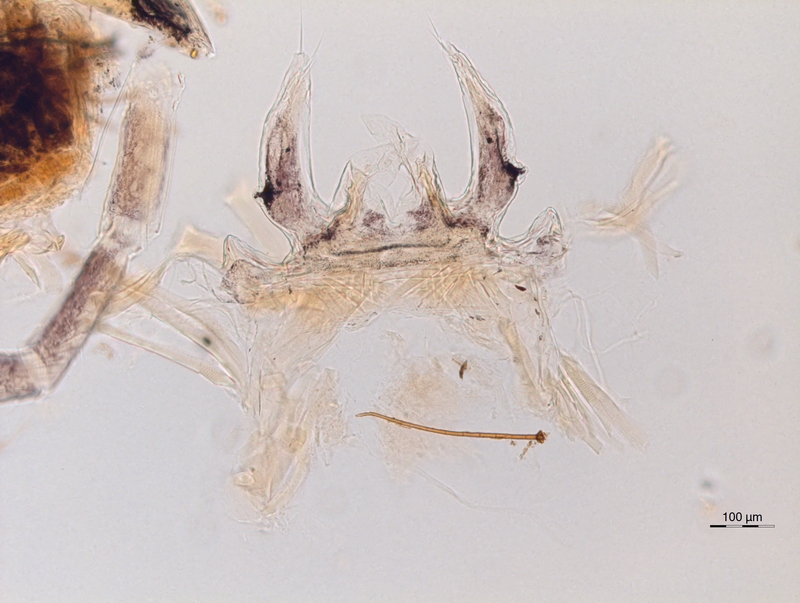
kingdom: Animalia
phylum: Arthropoda
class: Diplopoda
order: Chordeumatida
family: Anthroleucosomatidae
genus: Anamastigona
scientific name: Anamastigona hispidula
